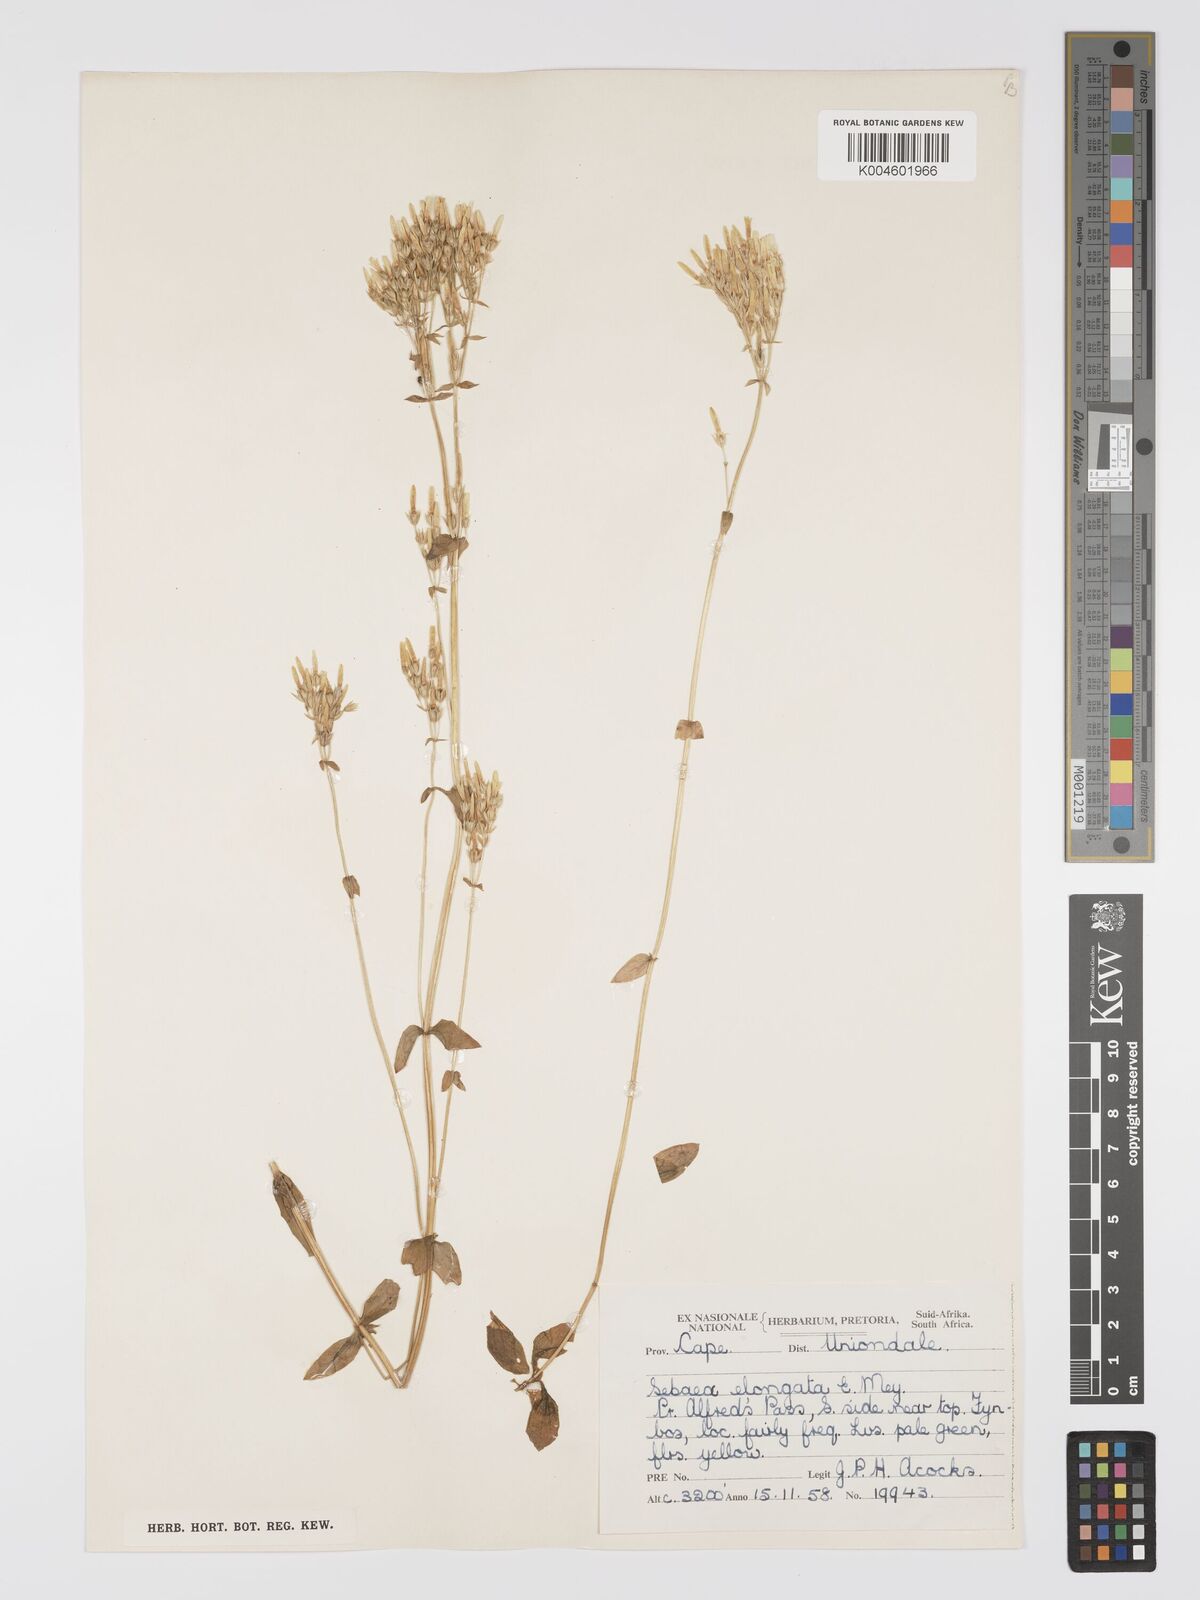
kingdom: Plantae
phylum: Tracheophyta
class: Magnoliopsida
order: Gentianales
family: Gentianaceae
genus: Sebaea
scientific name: Sebaea elongata
